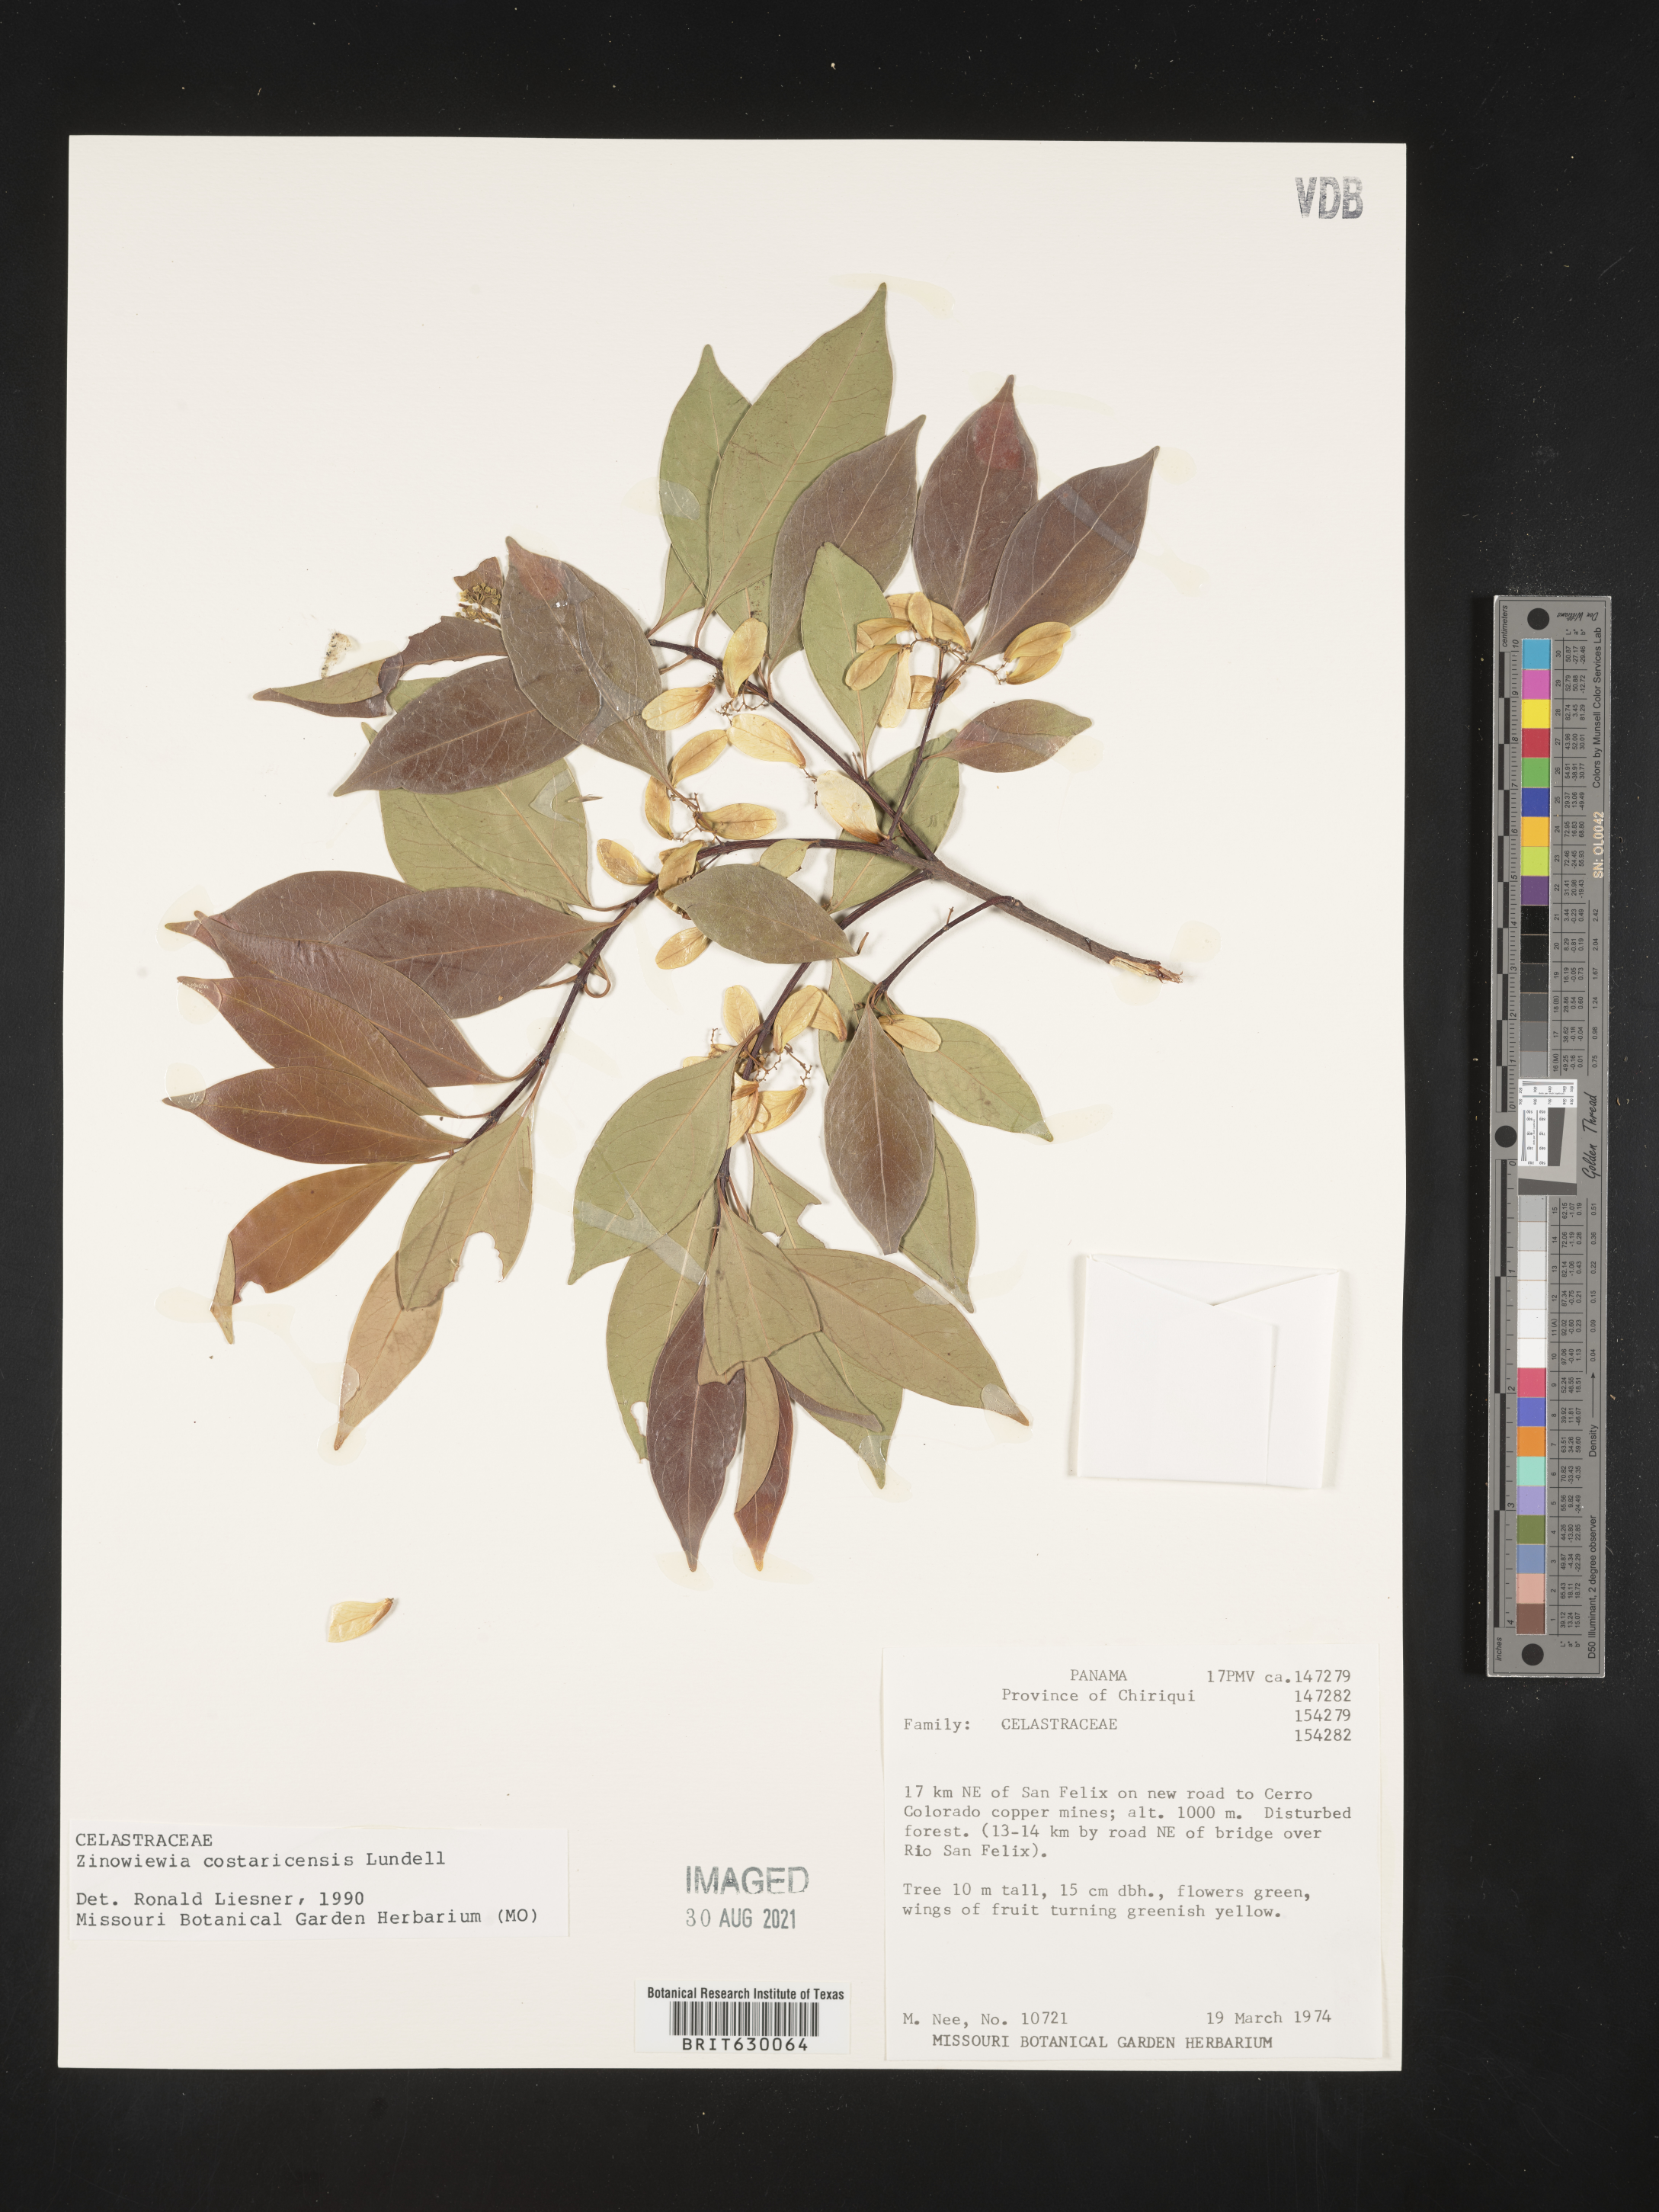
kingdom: Plantae
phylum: Tracheophyta
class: Magnoliopsida
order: Celastrales
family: Celastraceae
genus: Zinowiewia
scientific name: Zinowiewia integerrima
